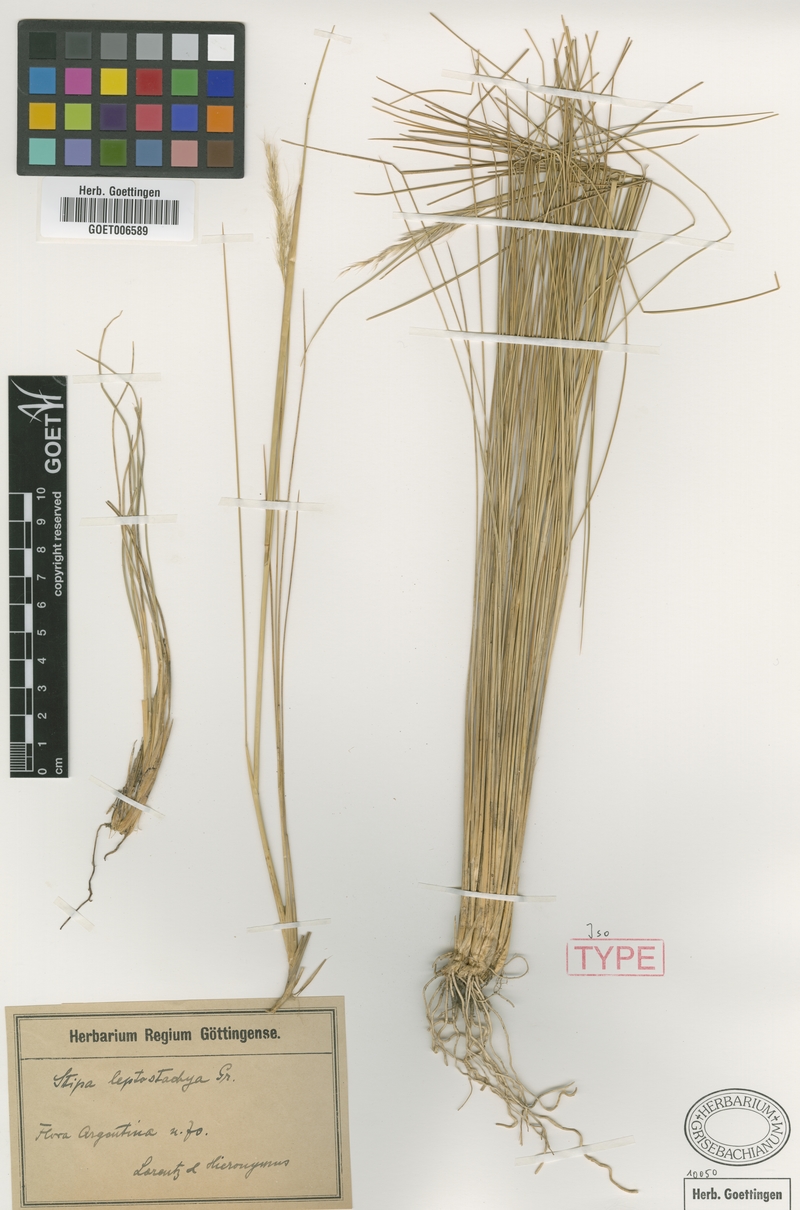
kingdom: Plantae
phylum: Tracheophyta
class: Liliopsida
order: Poales
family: Poaceae
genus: Jarava
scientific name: Jarava leptostachya
